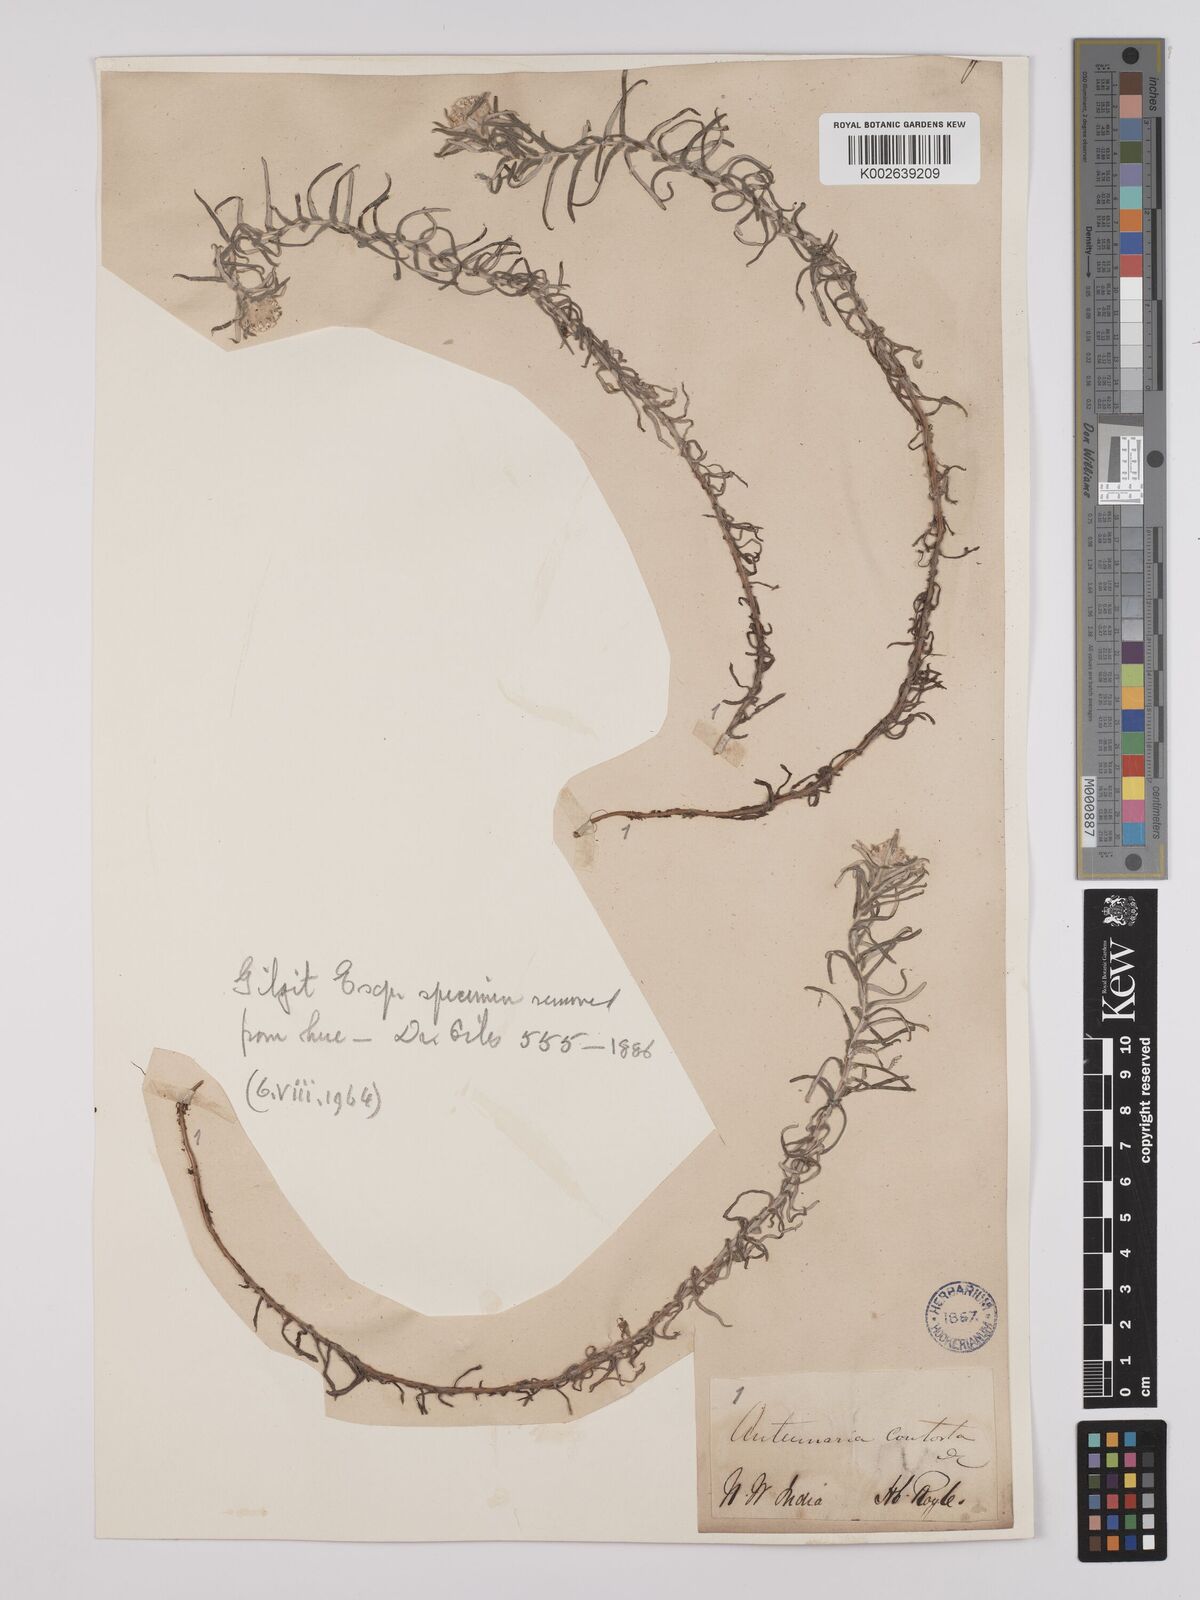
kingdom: Plantae
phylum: Tracheophyta
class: Magnoliopsida
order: Asterales
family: Asteraceae
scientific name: Asteraceae
